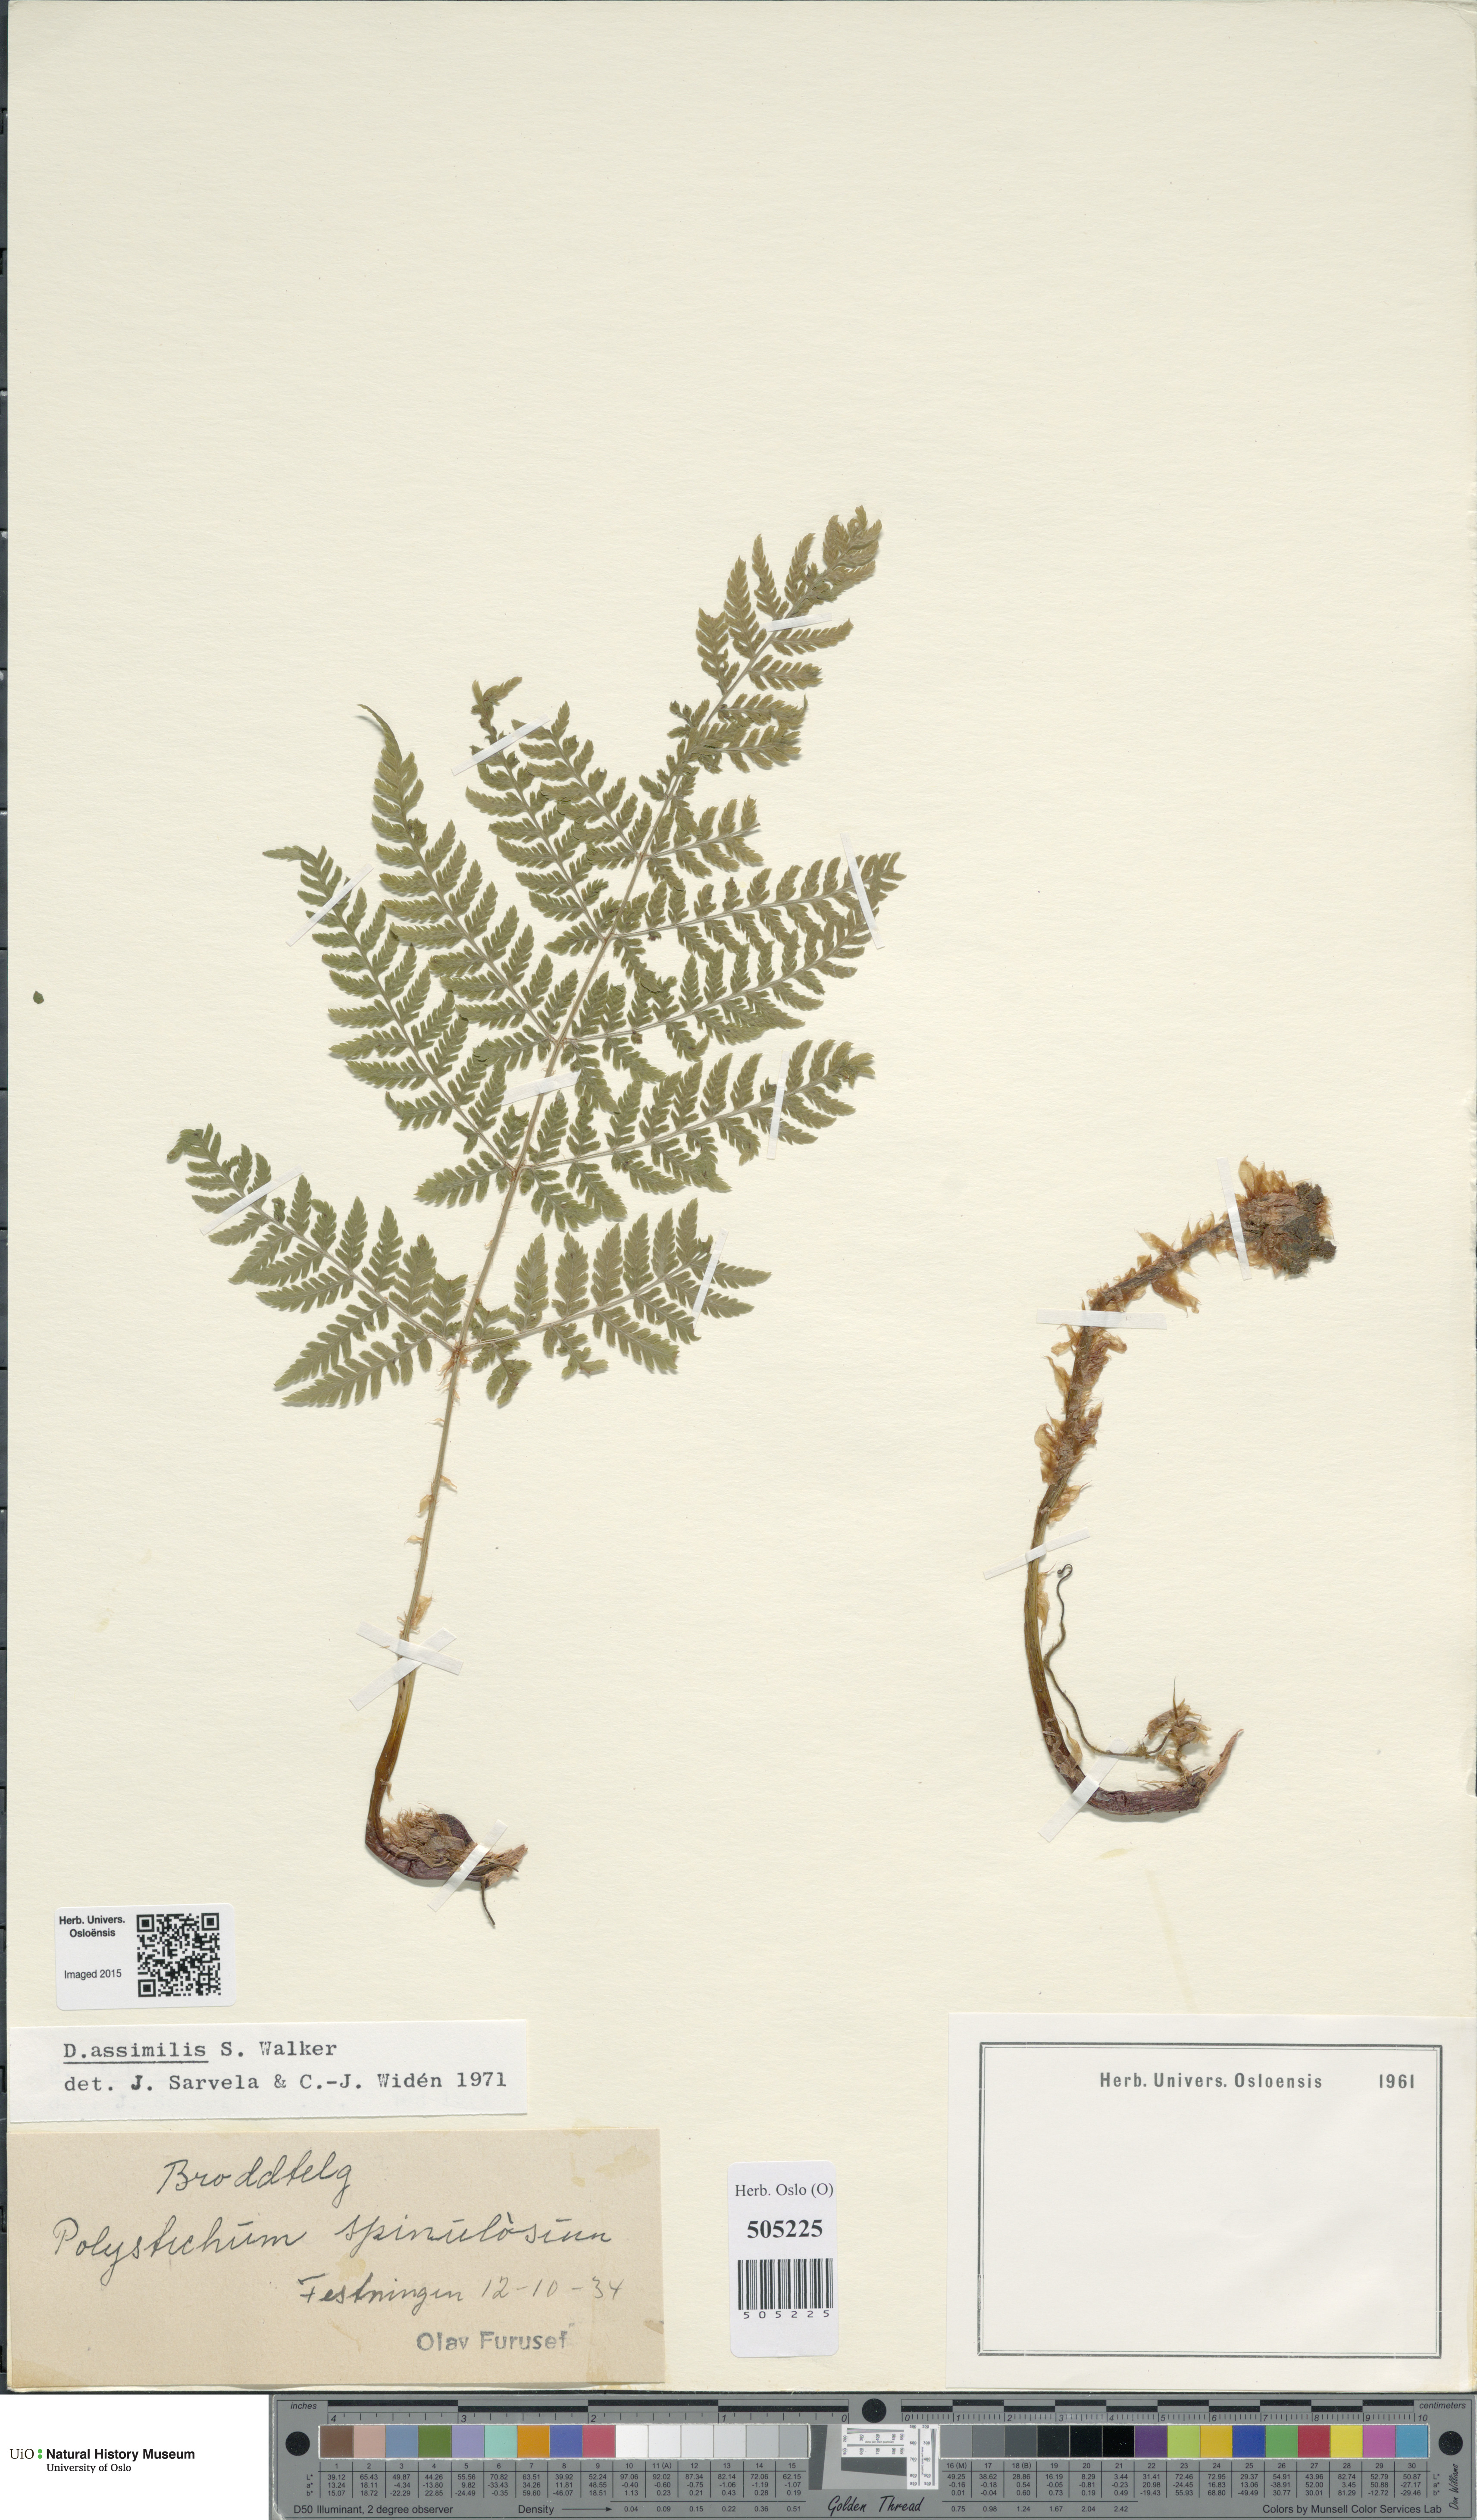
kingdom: Plantae
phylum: Tracheophyta
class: Polypodiopsida
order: Polypodiales
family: Dryopteridaceae
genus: Dryopteris
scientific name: Dryopteris expansa
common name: Northern buckler fern
